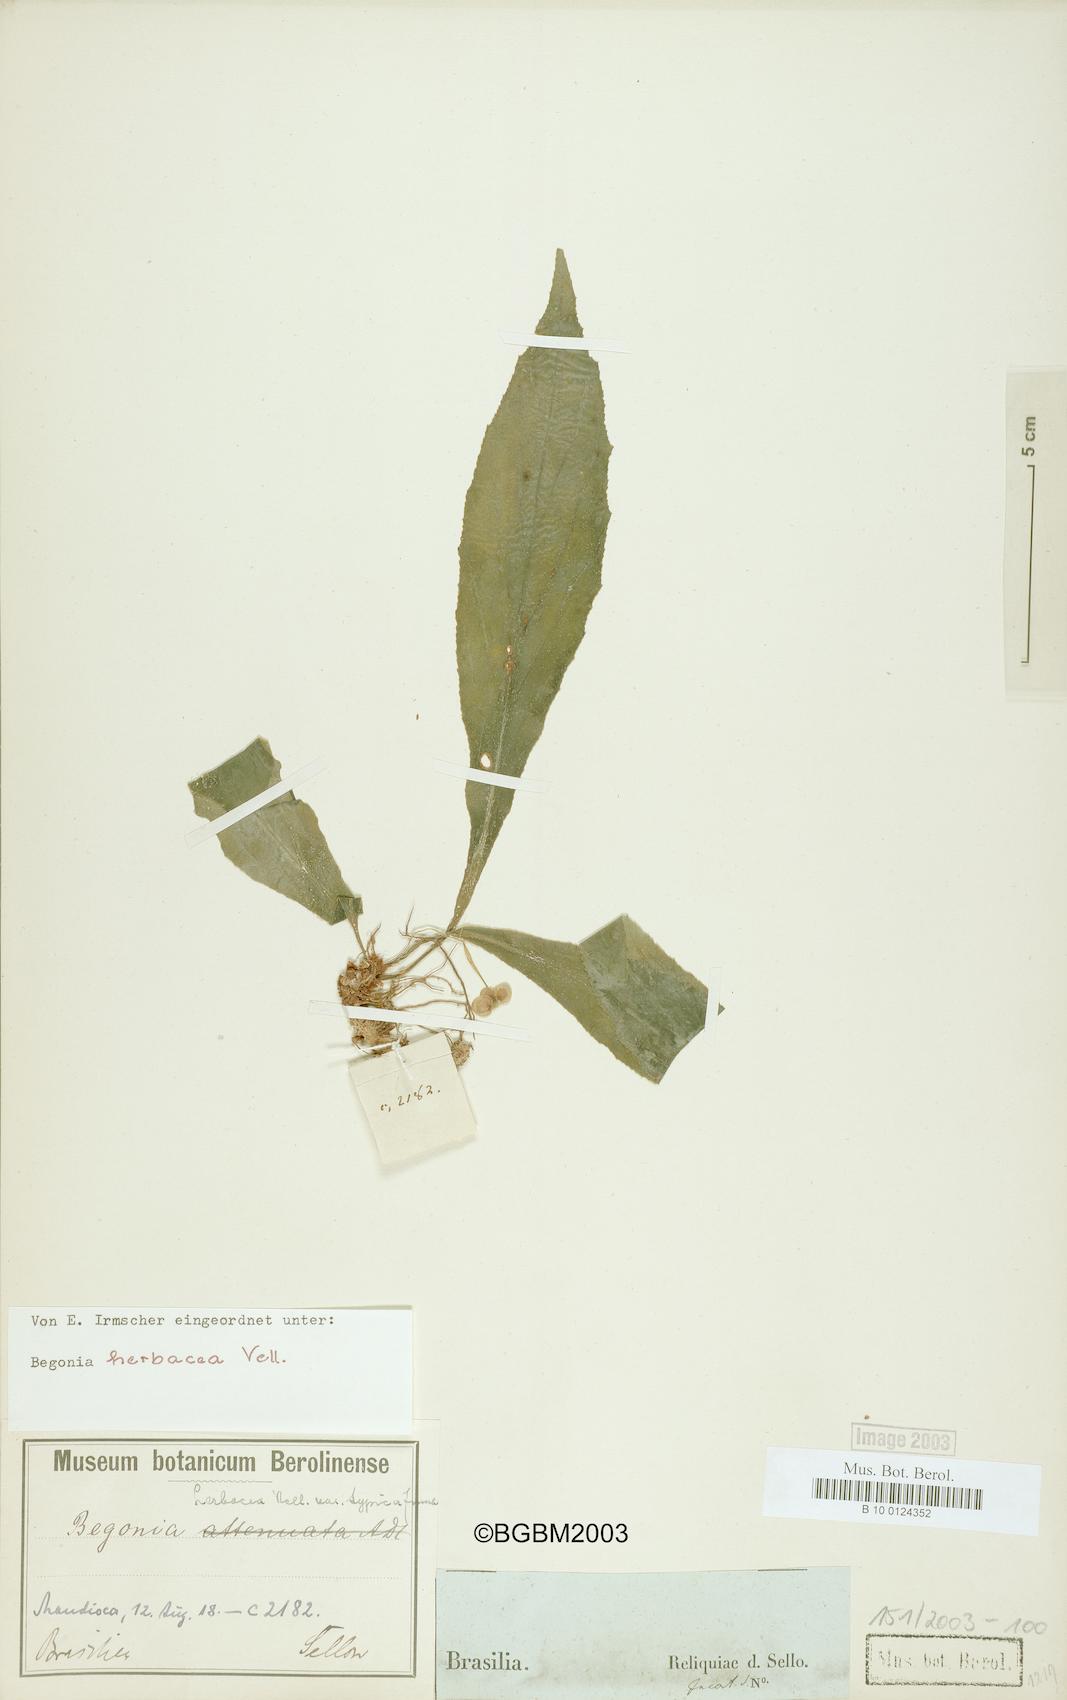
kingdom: Plantae
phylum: Tracheophyta
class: Magnoliopsida
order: Cucurbitales
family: Begoniaceae
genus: Begonia
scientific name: Begonia herbacea
